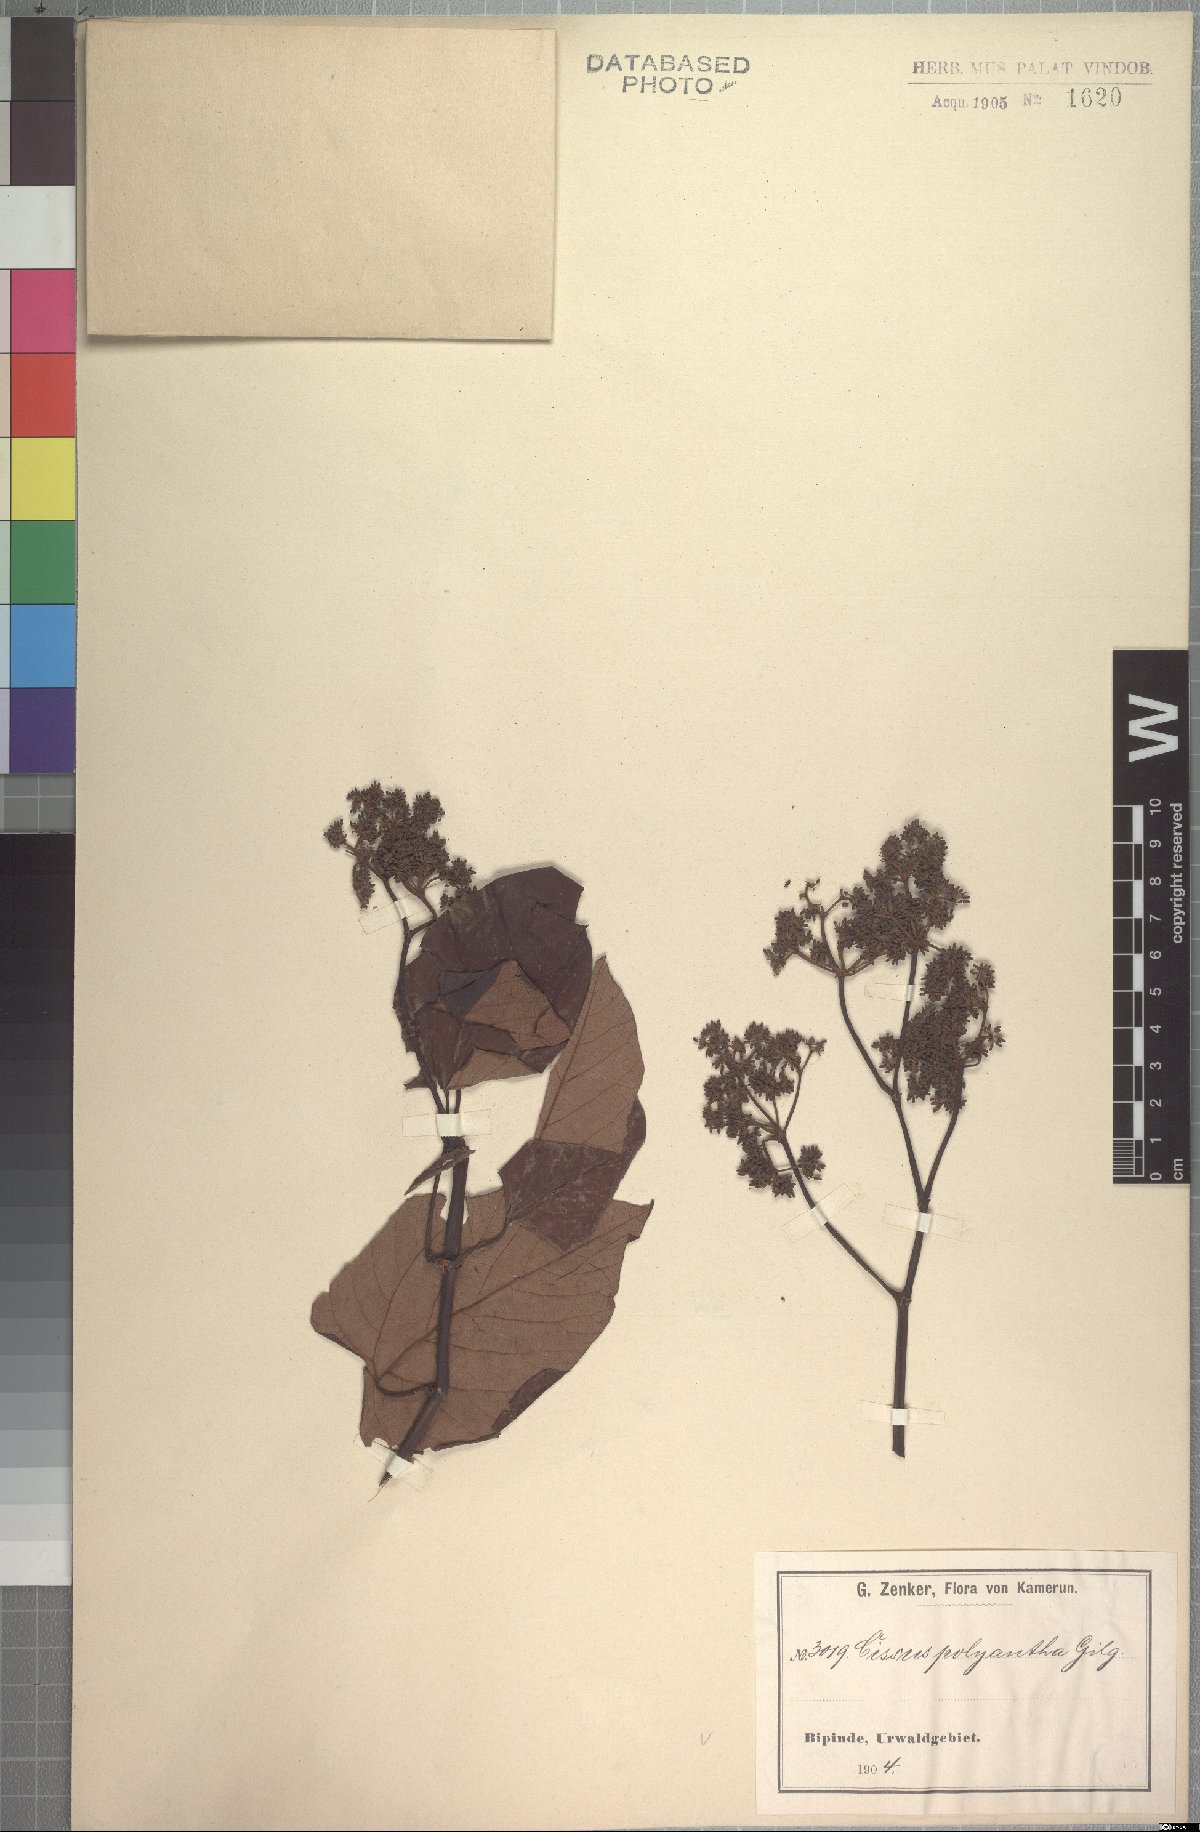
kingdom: Plantae
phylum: Tracheophyta
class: Magnoliopsida
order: Vitales
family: Vitaceae
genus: Cissus
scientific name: Cissus amoena
